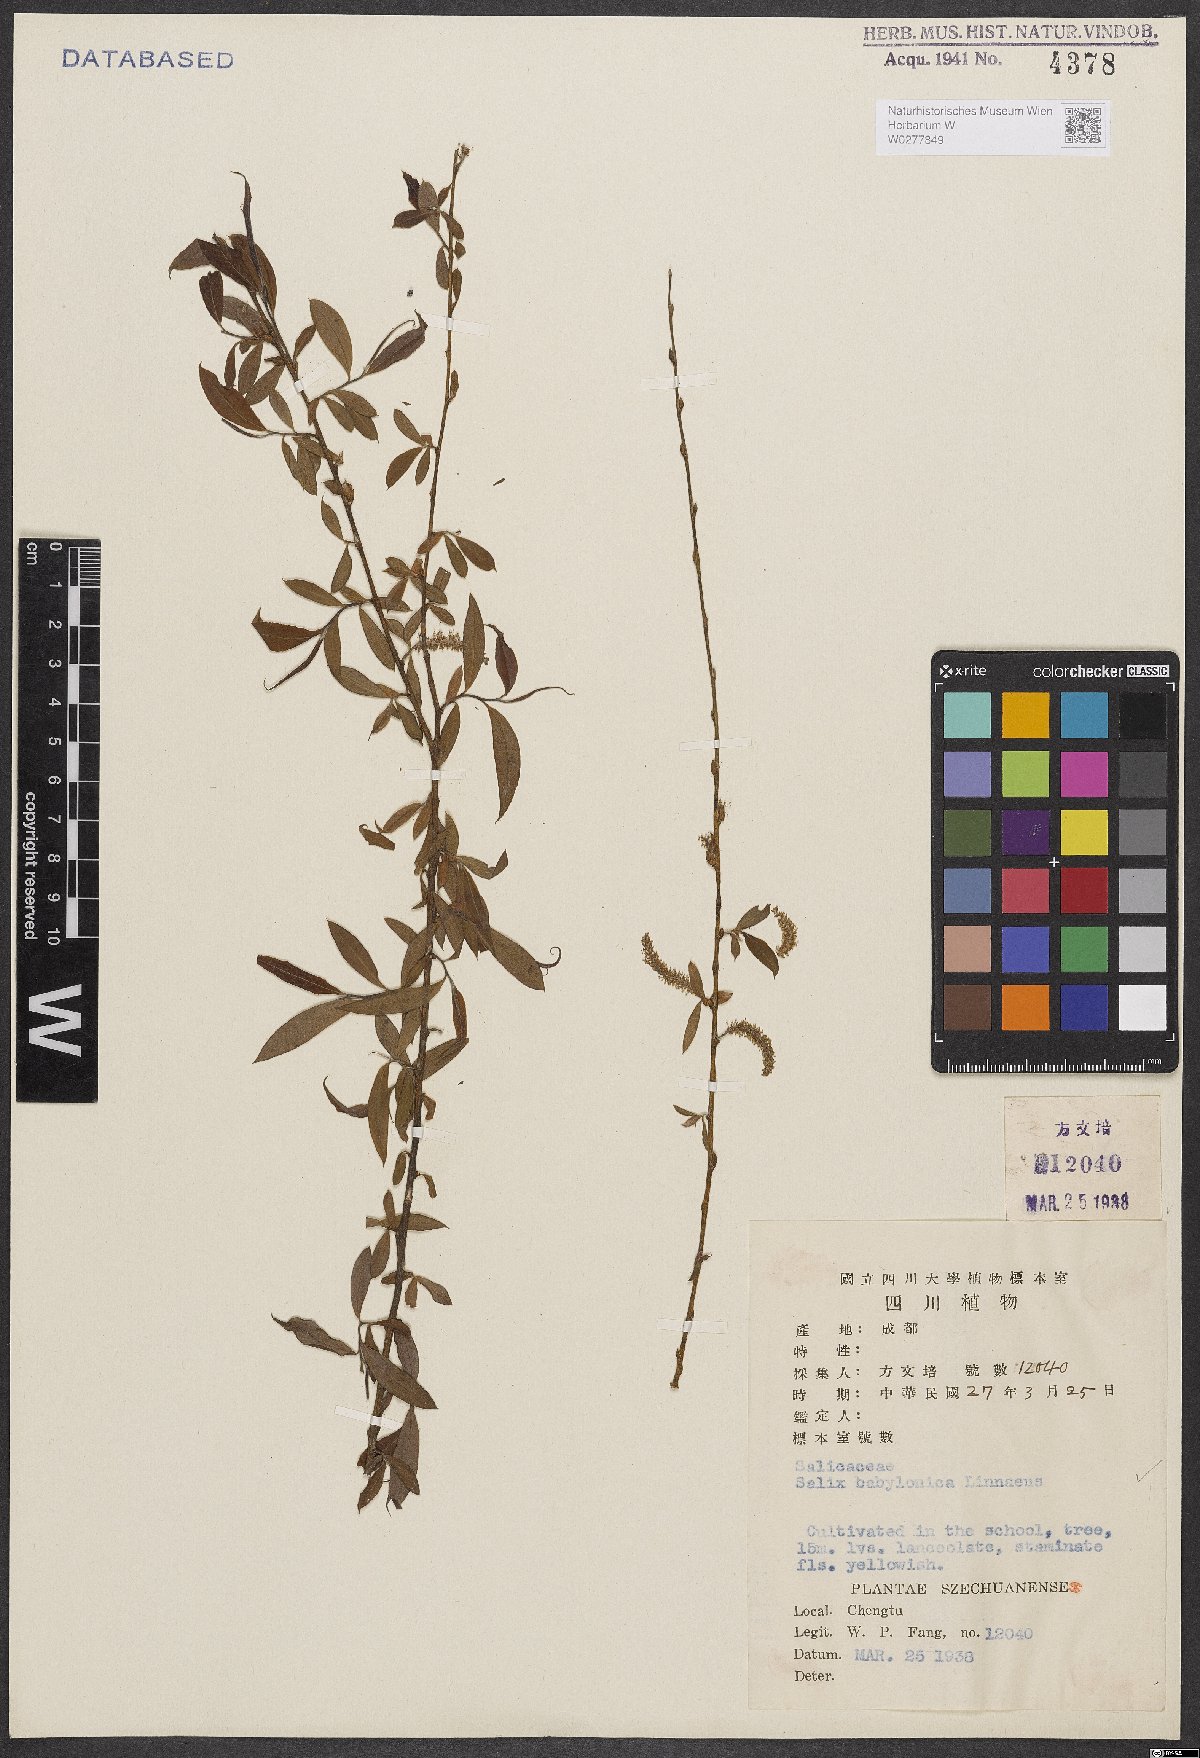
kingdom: Plantae
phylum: Tracheophyta
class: Magnoliopsida
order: Malpighiales
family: Salicaceae
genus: Salix
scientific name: Salix babylonica
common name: Weeping willow
